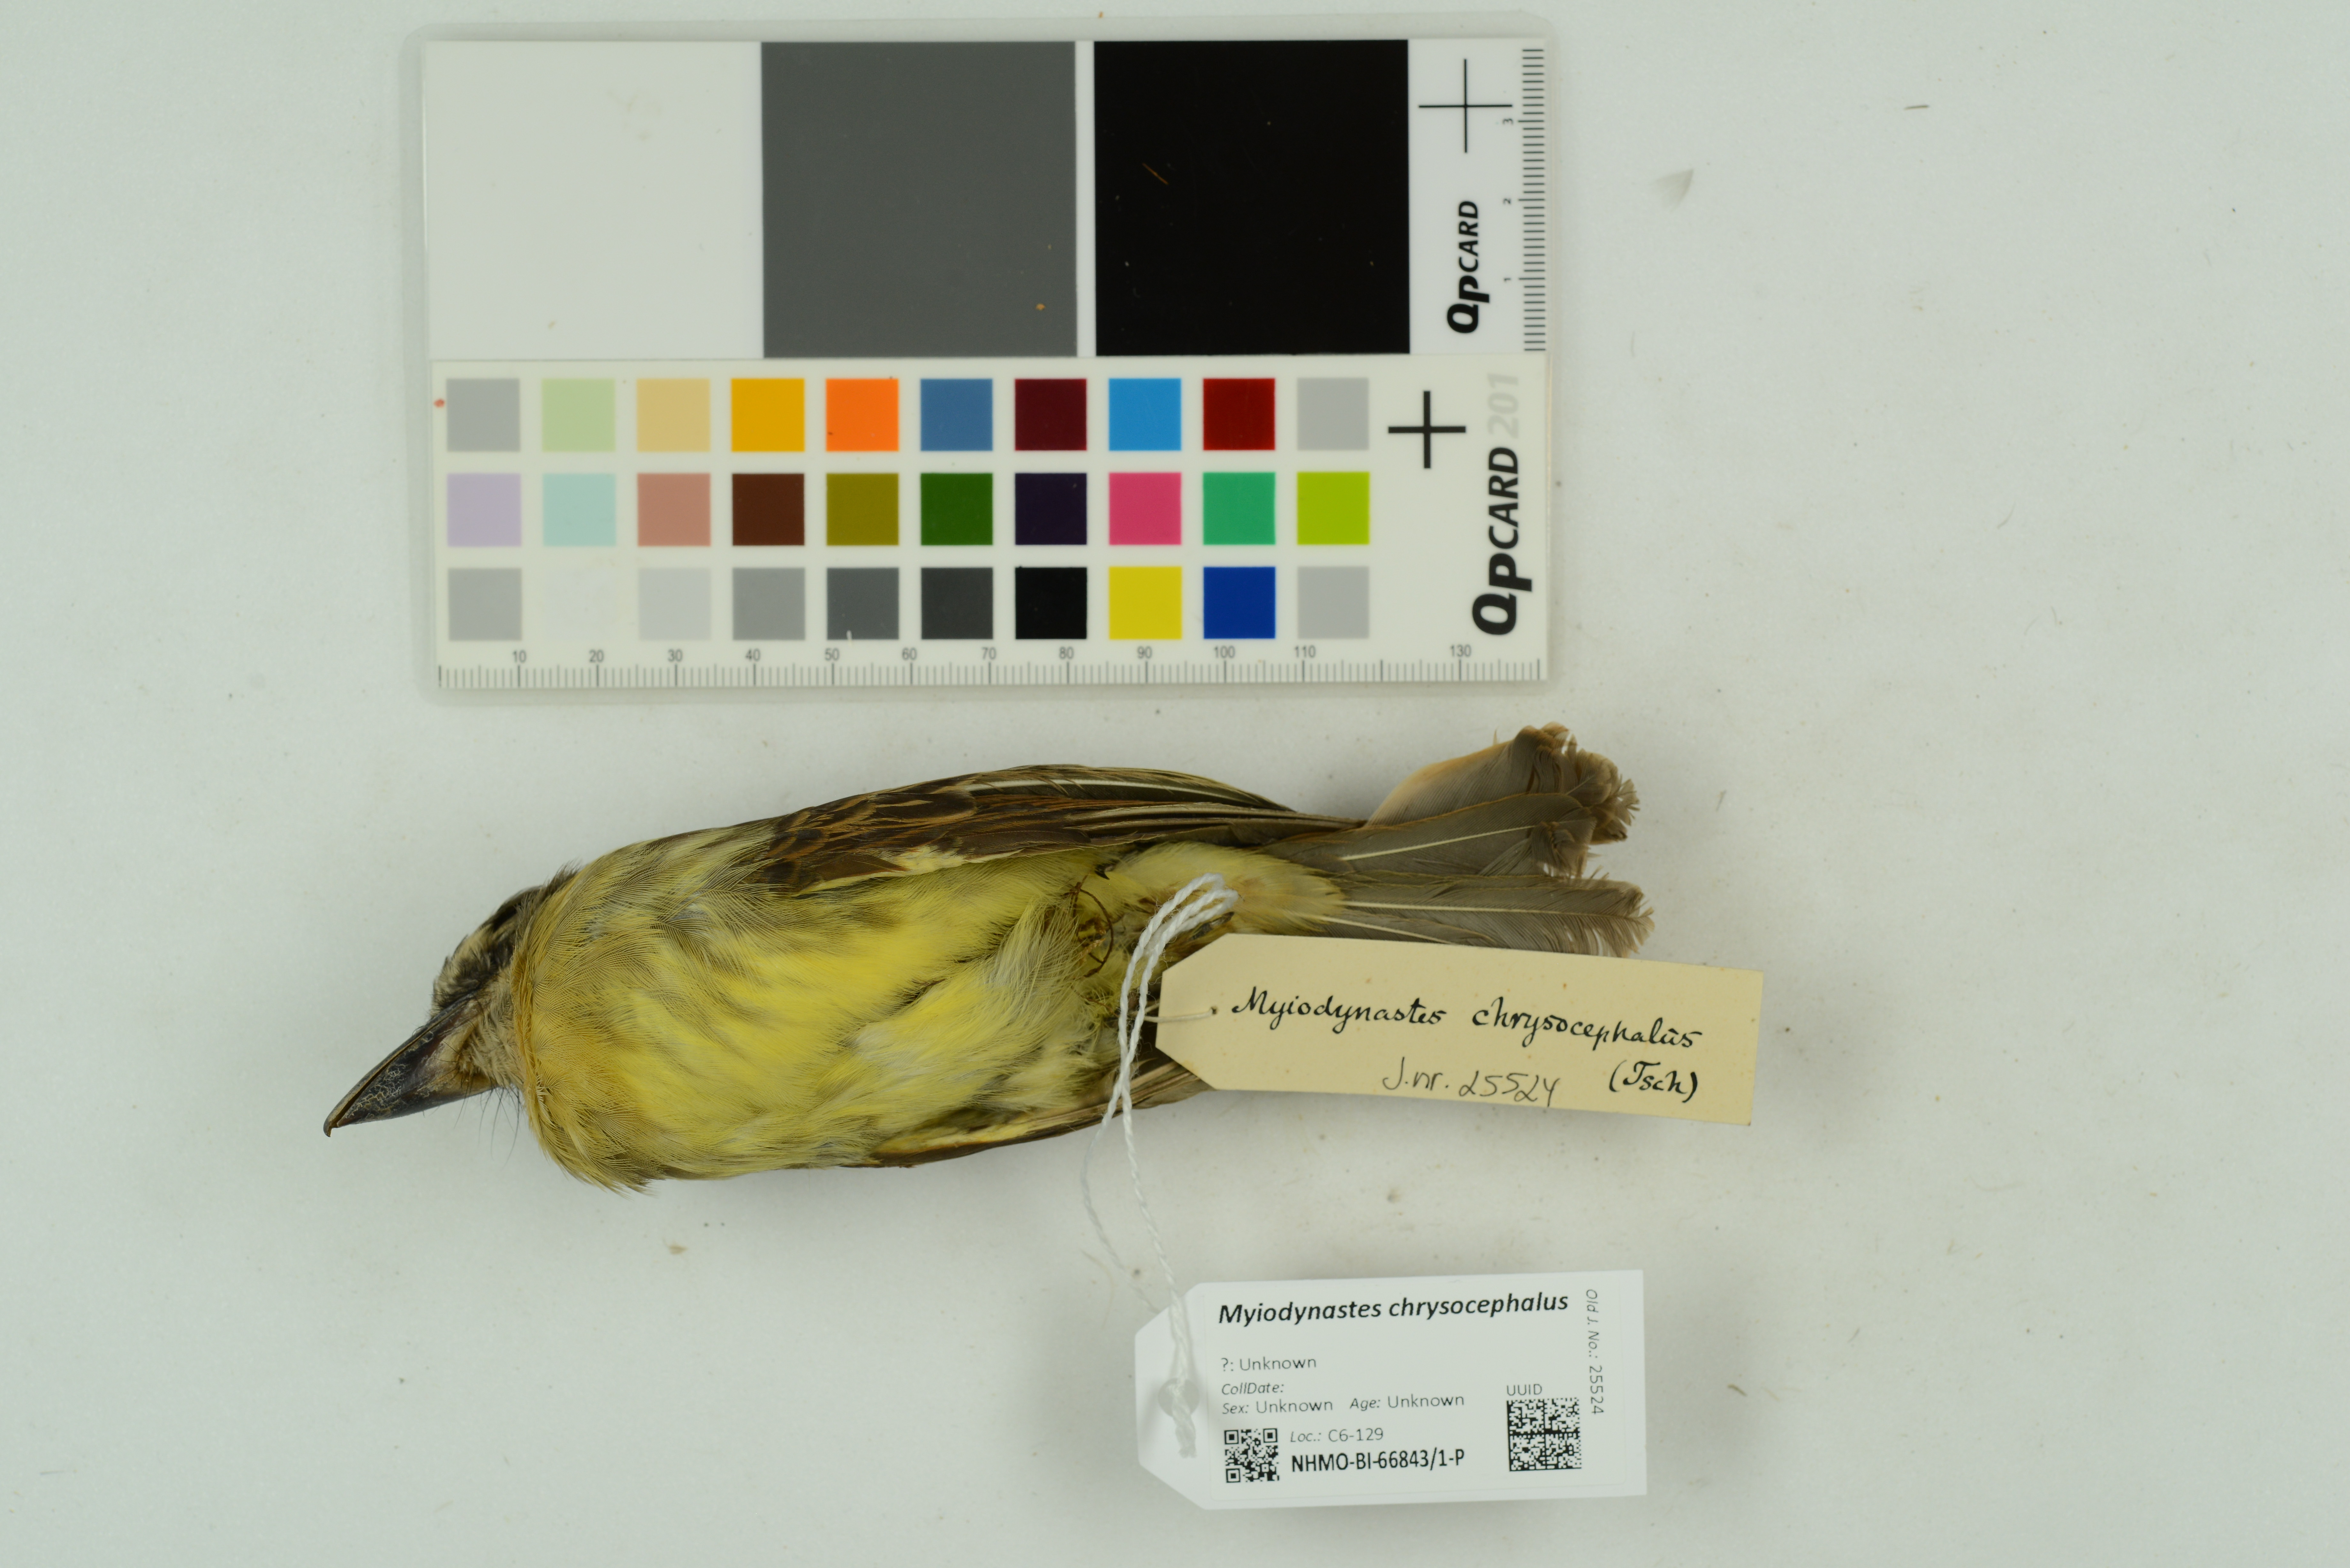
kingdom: Animalia
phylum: Chordata
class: Aves
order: Passeriformes
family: Tyrannidae
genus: Myiodynastes
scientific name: Myiodynastes chrysocephalus
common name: Golden-crowned flycatcher
